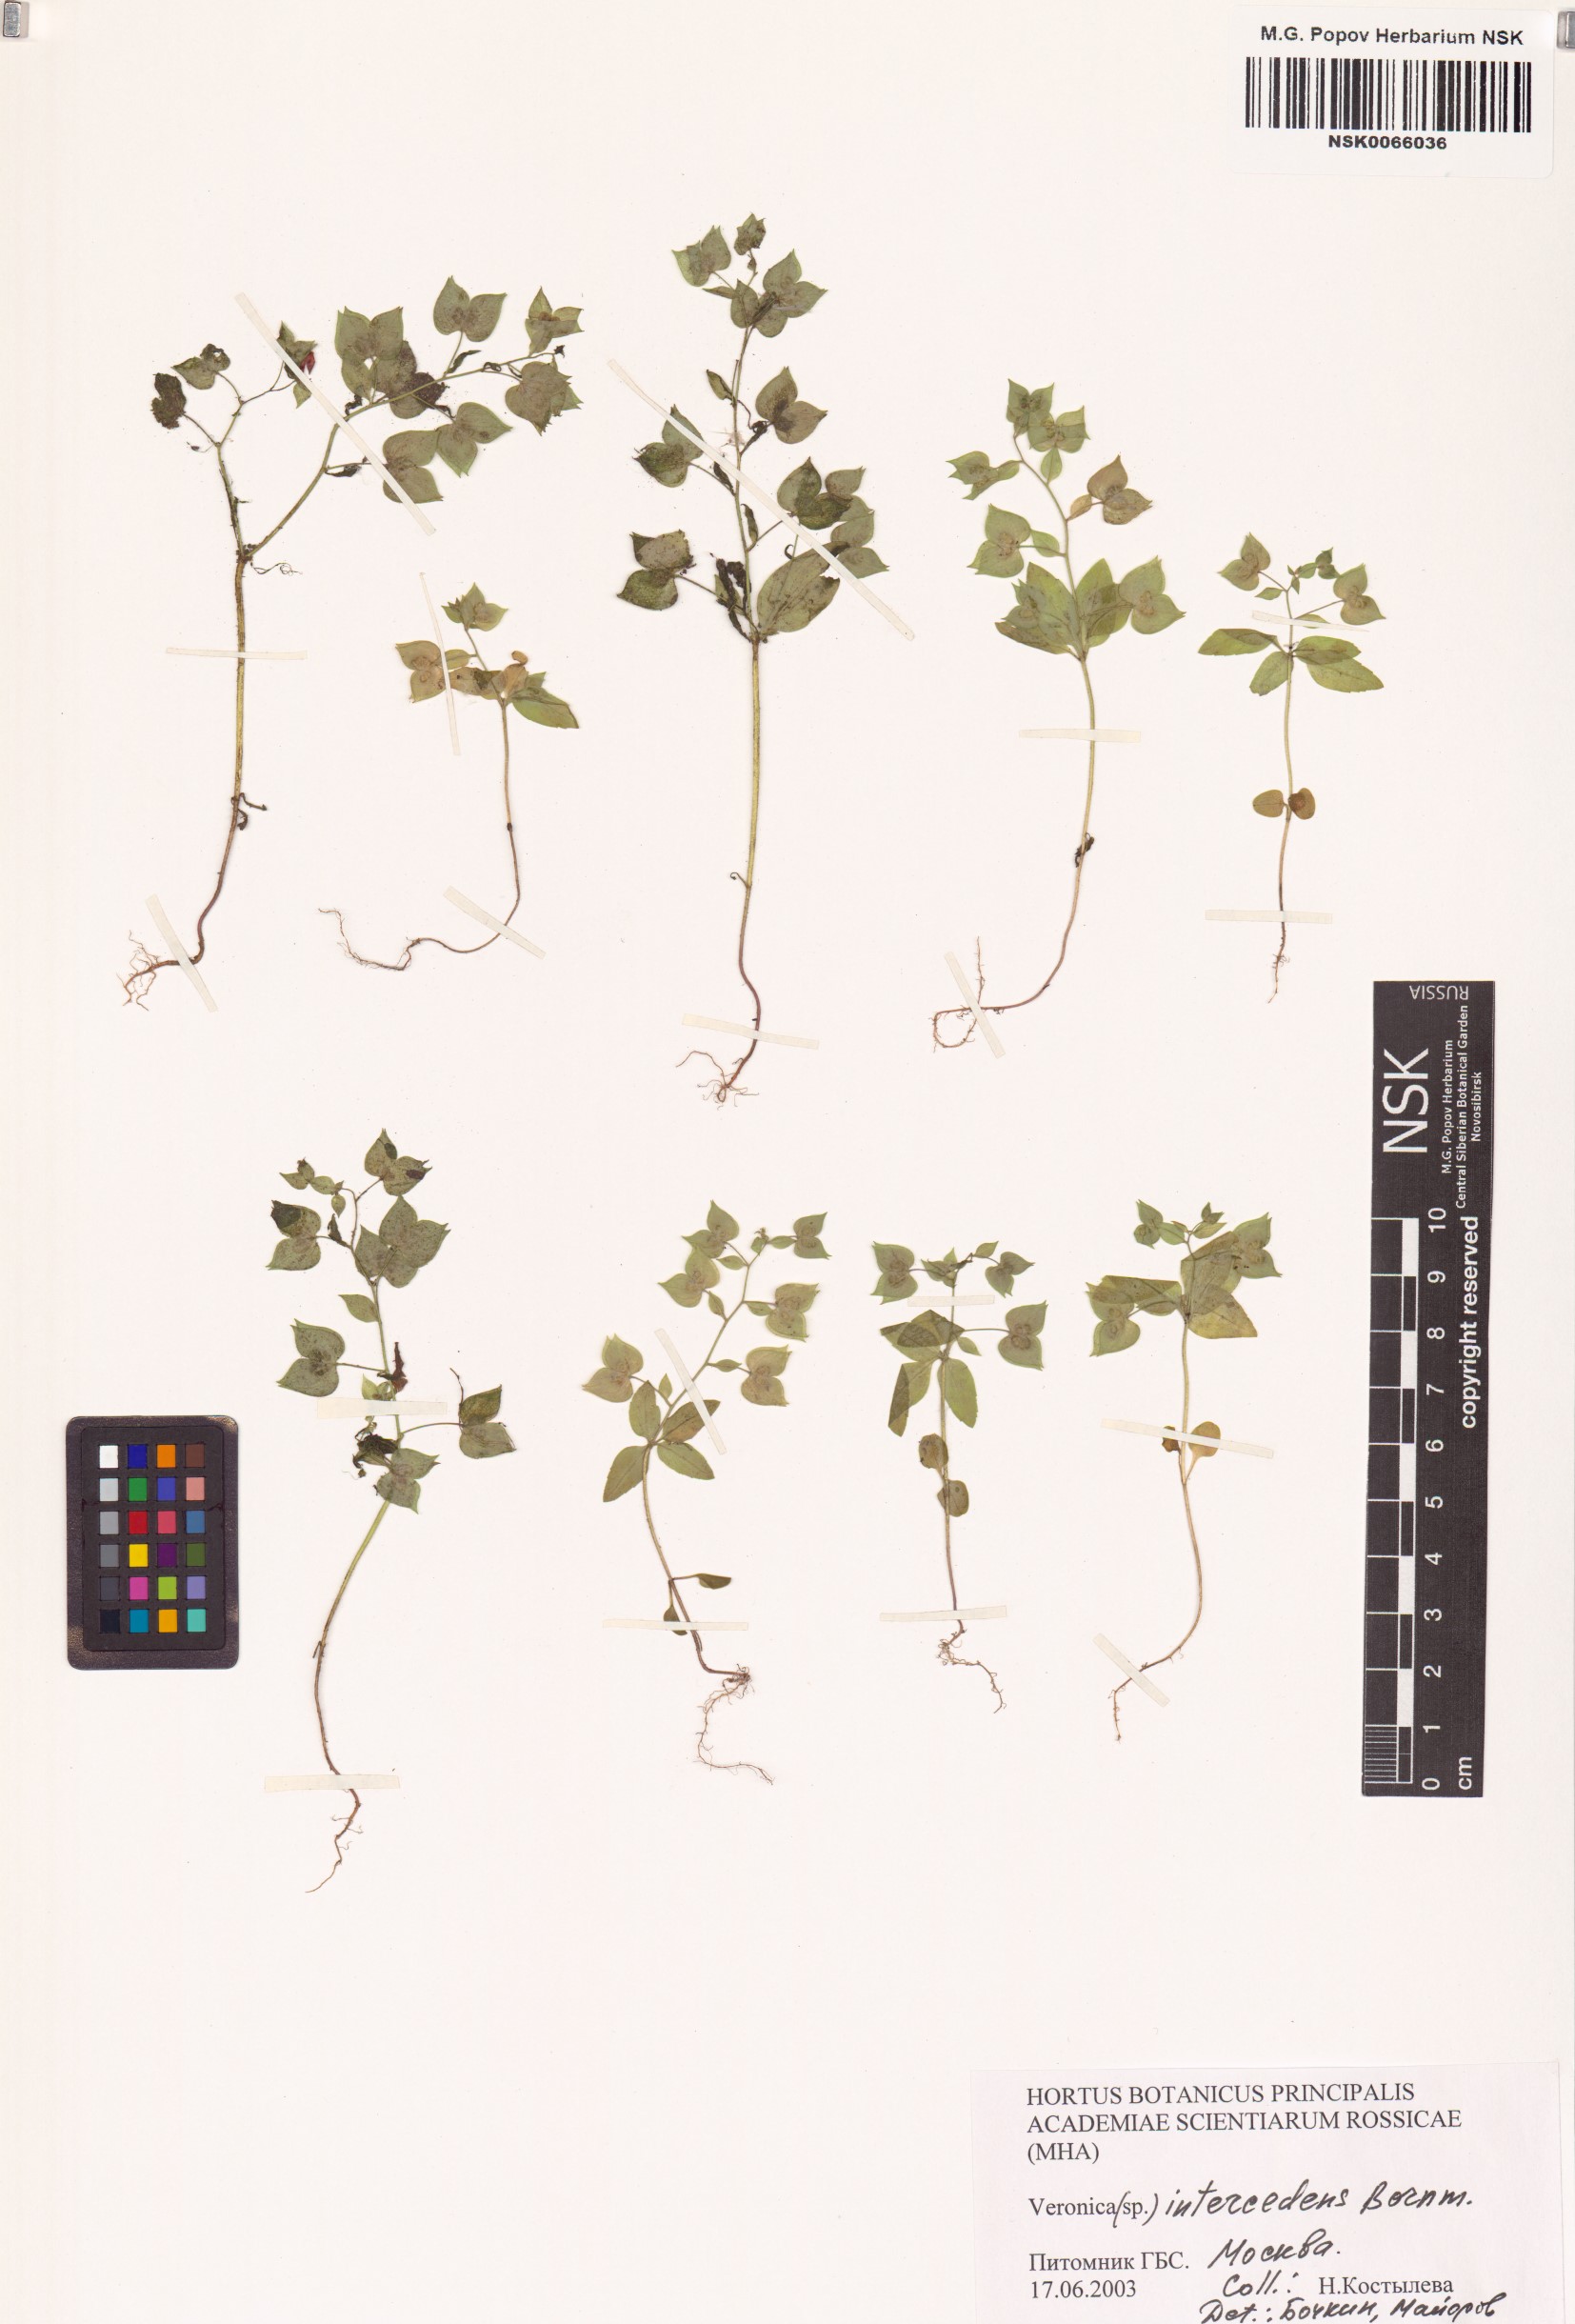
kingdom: Plantae
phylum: Tracheophyta
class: Magnoliopsida
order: Lamiales
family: Plantaginaceae
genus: Veronica
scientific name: Veronica intercedens
